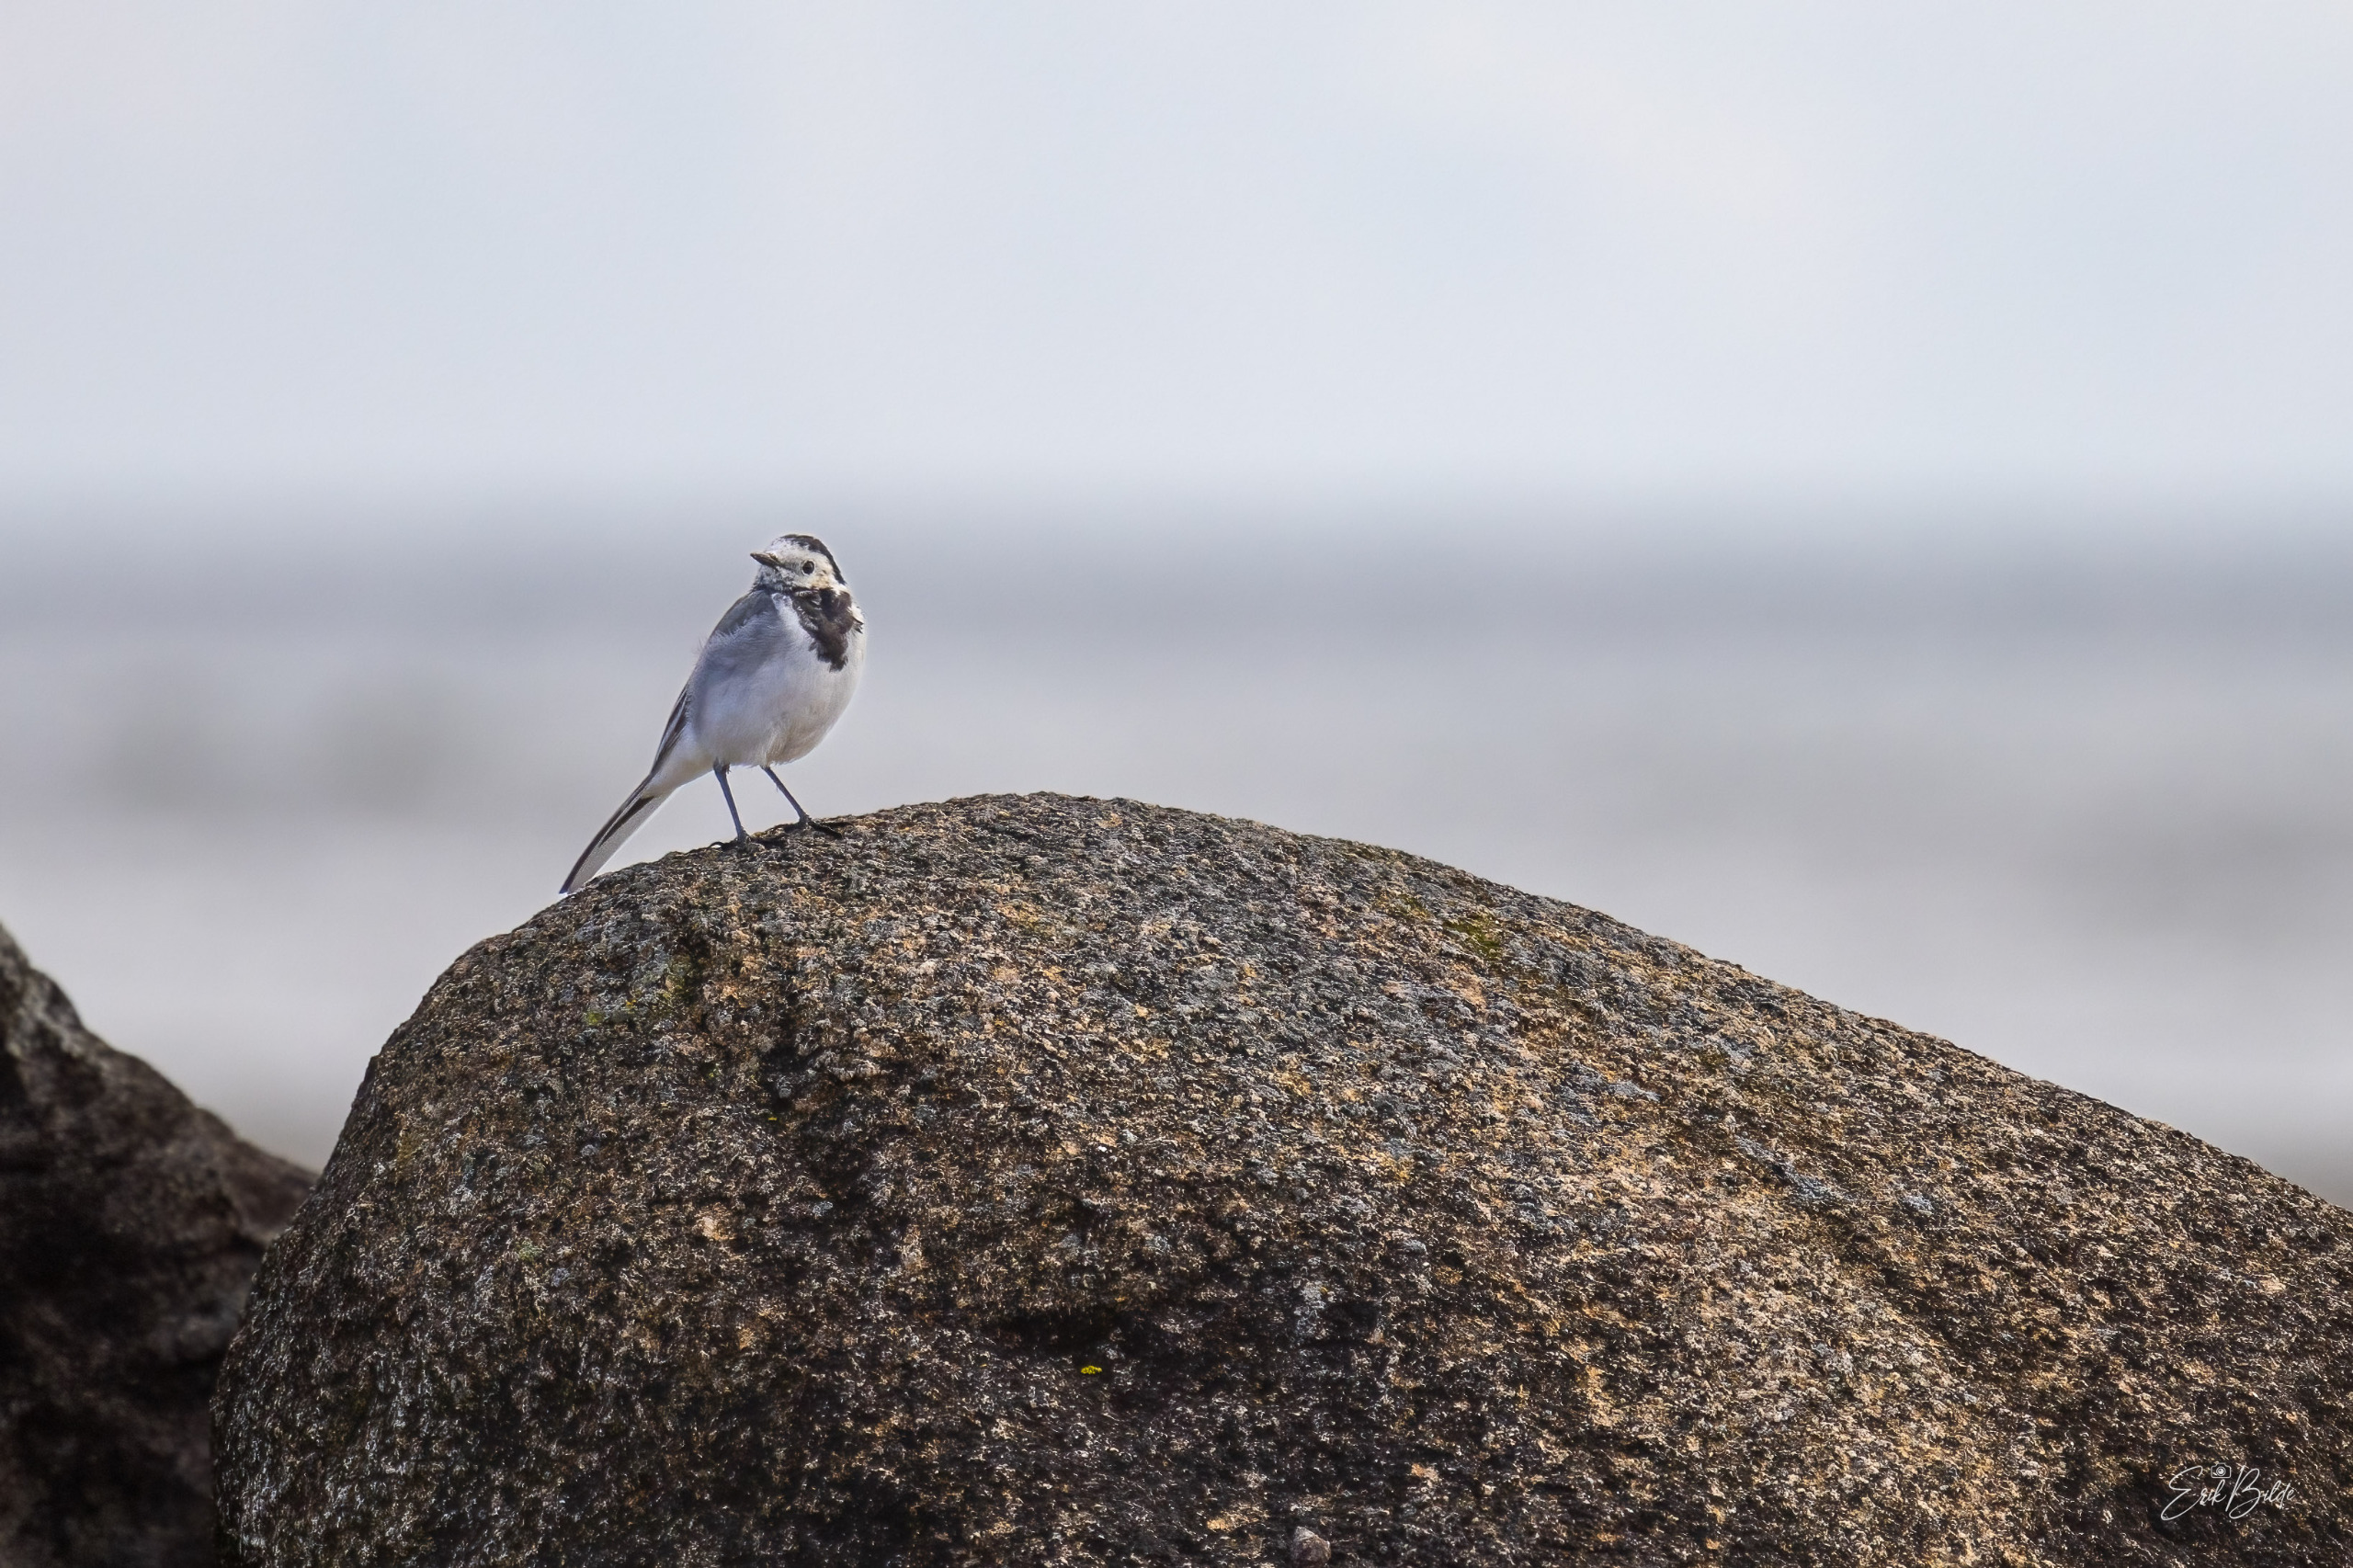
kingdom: Animalia
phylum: Chordata
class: Aves
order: Passeriformes
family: Motacillidae
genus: Motacilla
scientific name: Motacilla alba
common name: Hvid vipstjert
